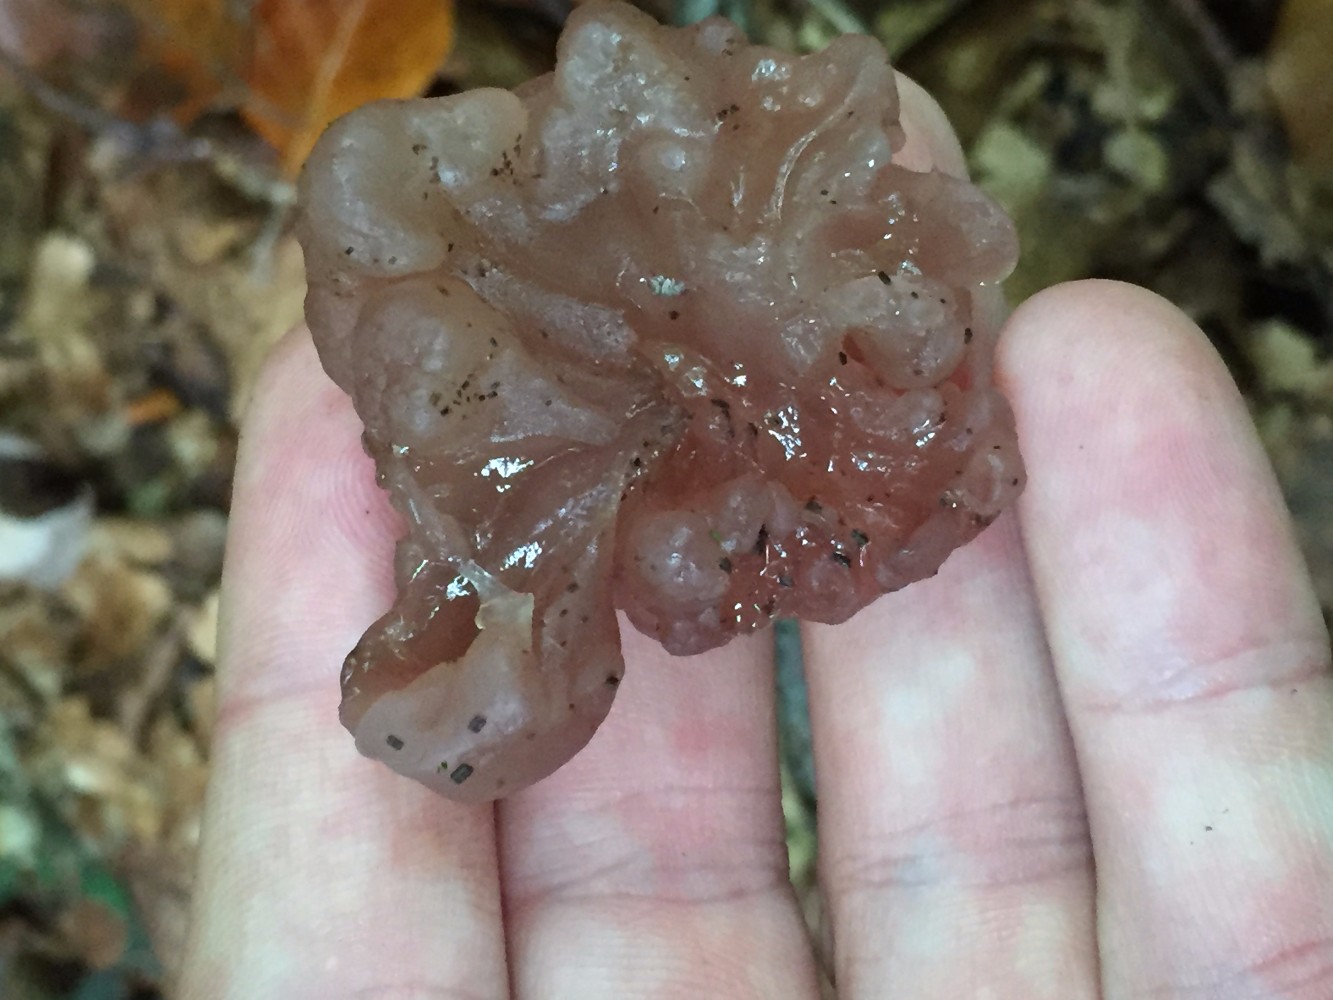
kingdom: Fungi
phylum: Ascomycota
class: Leotiomycetes
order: Helotiales
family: Gelatinodiscaceae
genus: Ascotremella
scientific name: Ascotremella faginea
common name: hjerne-bævreskive
